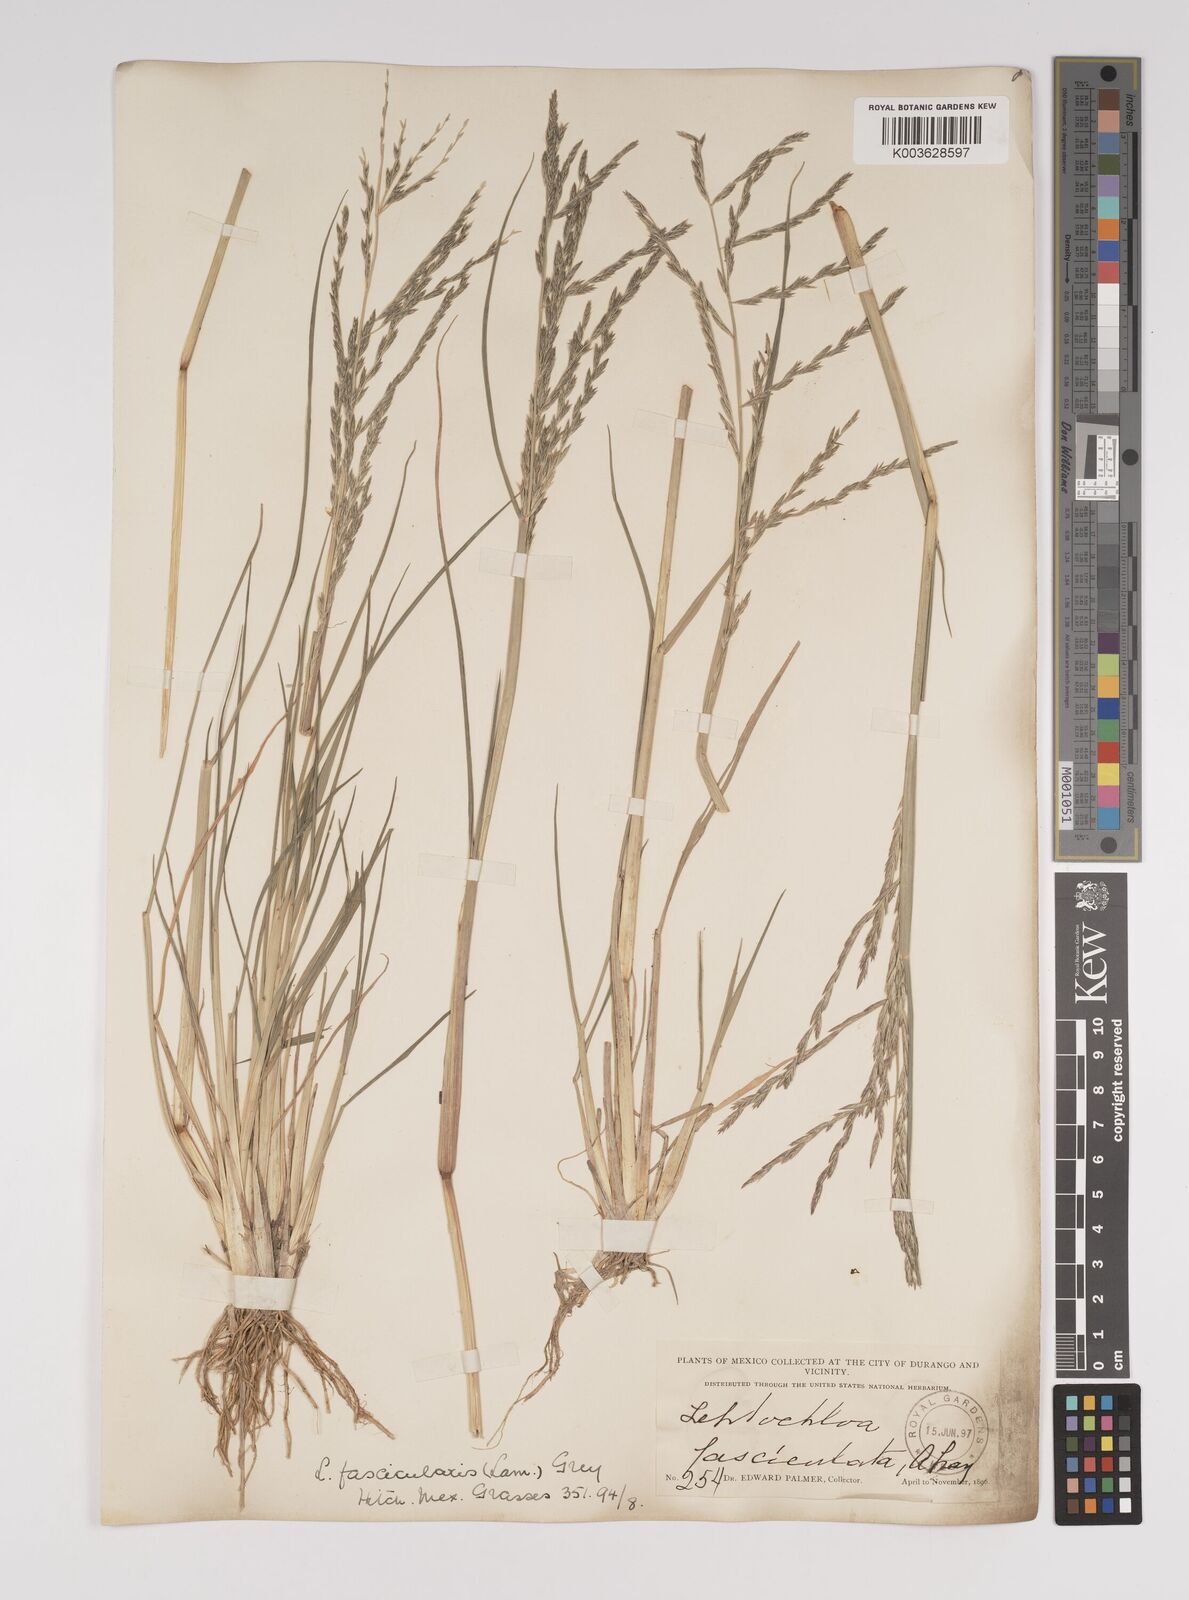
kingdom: Plantae
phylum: Tracheophyta
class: Liliopsida
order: Poales
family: Poaceae
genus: Diplachne
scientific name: Diplachne fusca
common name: Brown beetle grass
